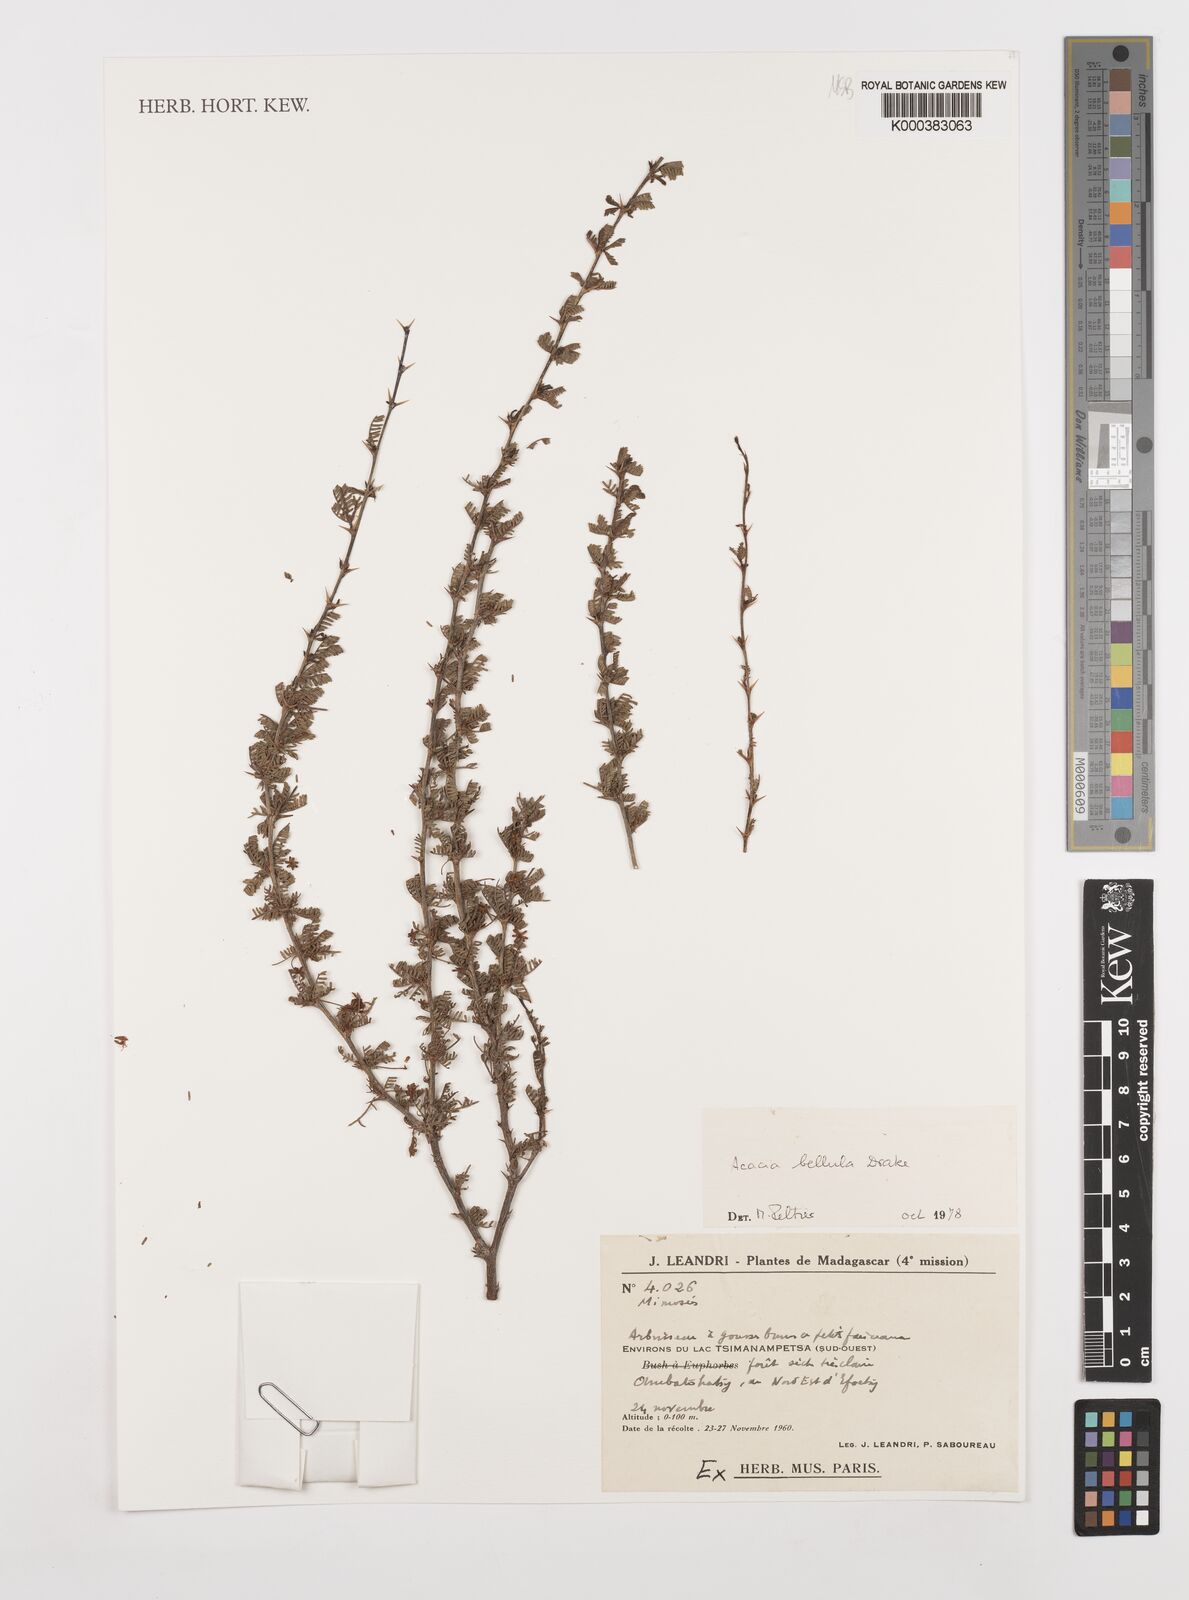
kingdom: Plantae
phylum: Tracheophyta
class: Magnoliopsida
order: Fabales
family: Fabaceae
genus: Vachellia
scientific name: Vachellia bellula
